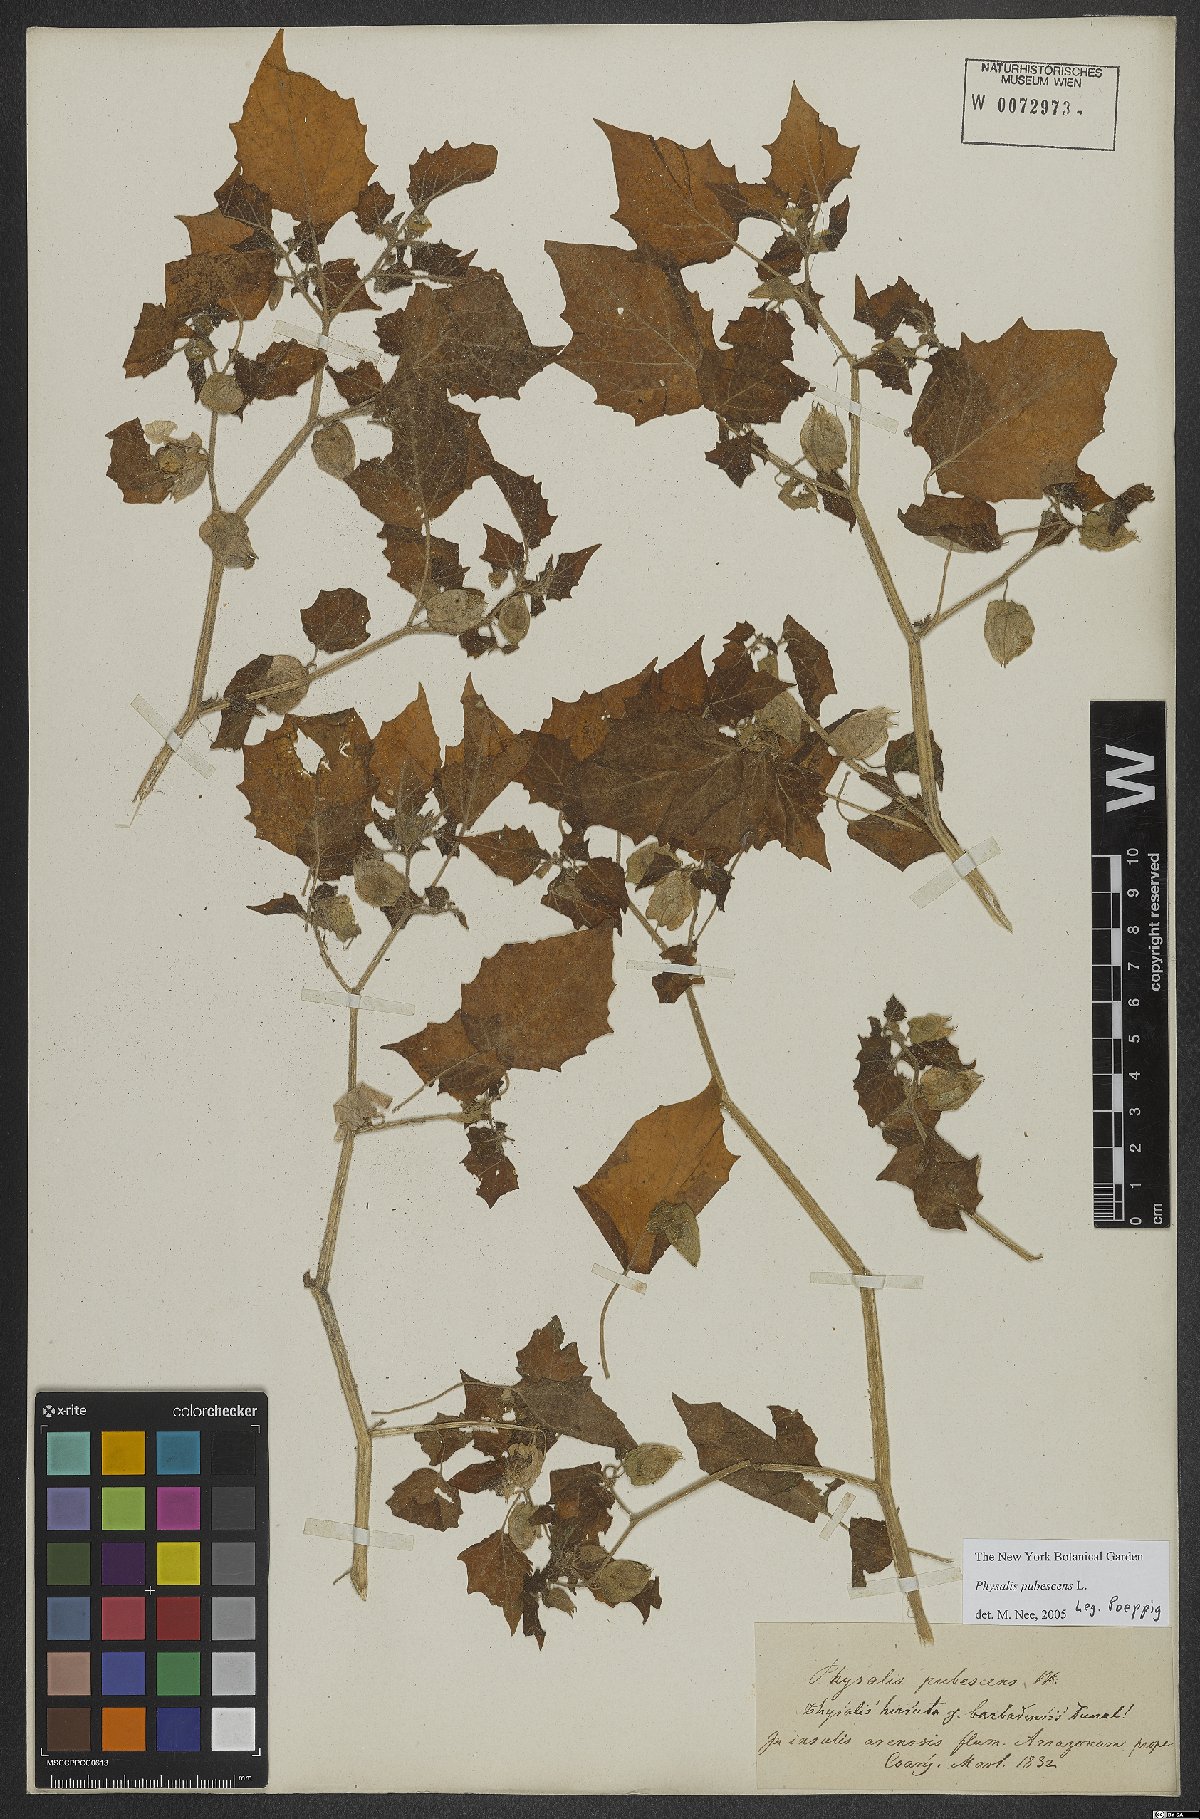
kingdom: Plantae
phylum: Tracheophyta
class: Magnoliopsida
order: Solanales
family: Solanaceae
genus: Physalis
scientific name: Physalis pubescens
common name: Downy ground-cherry
